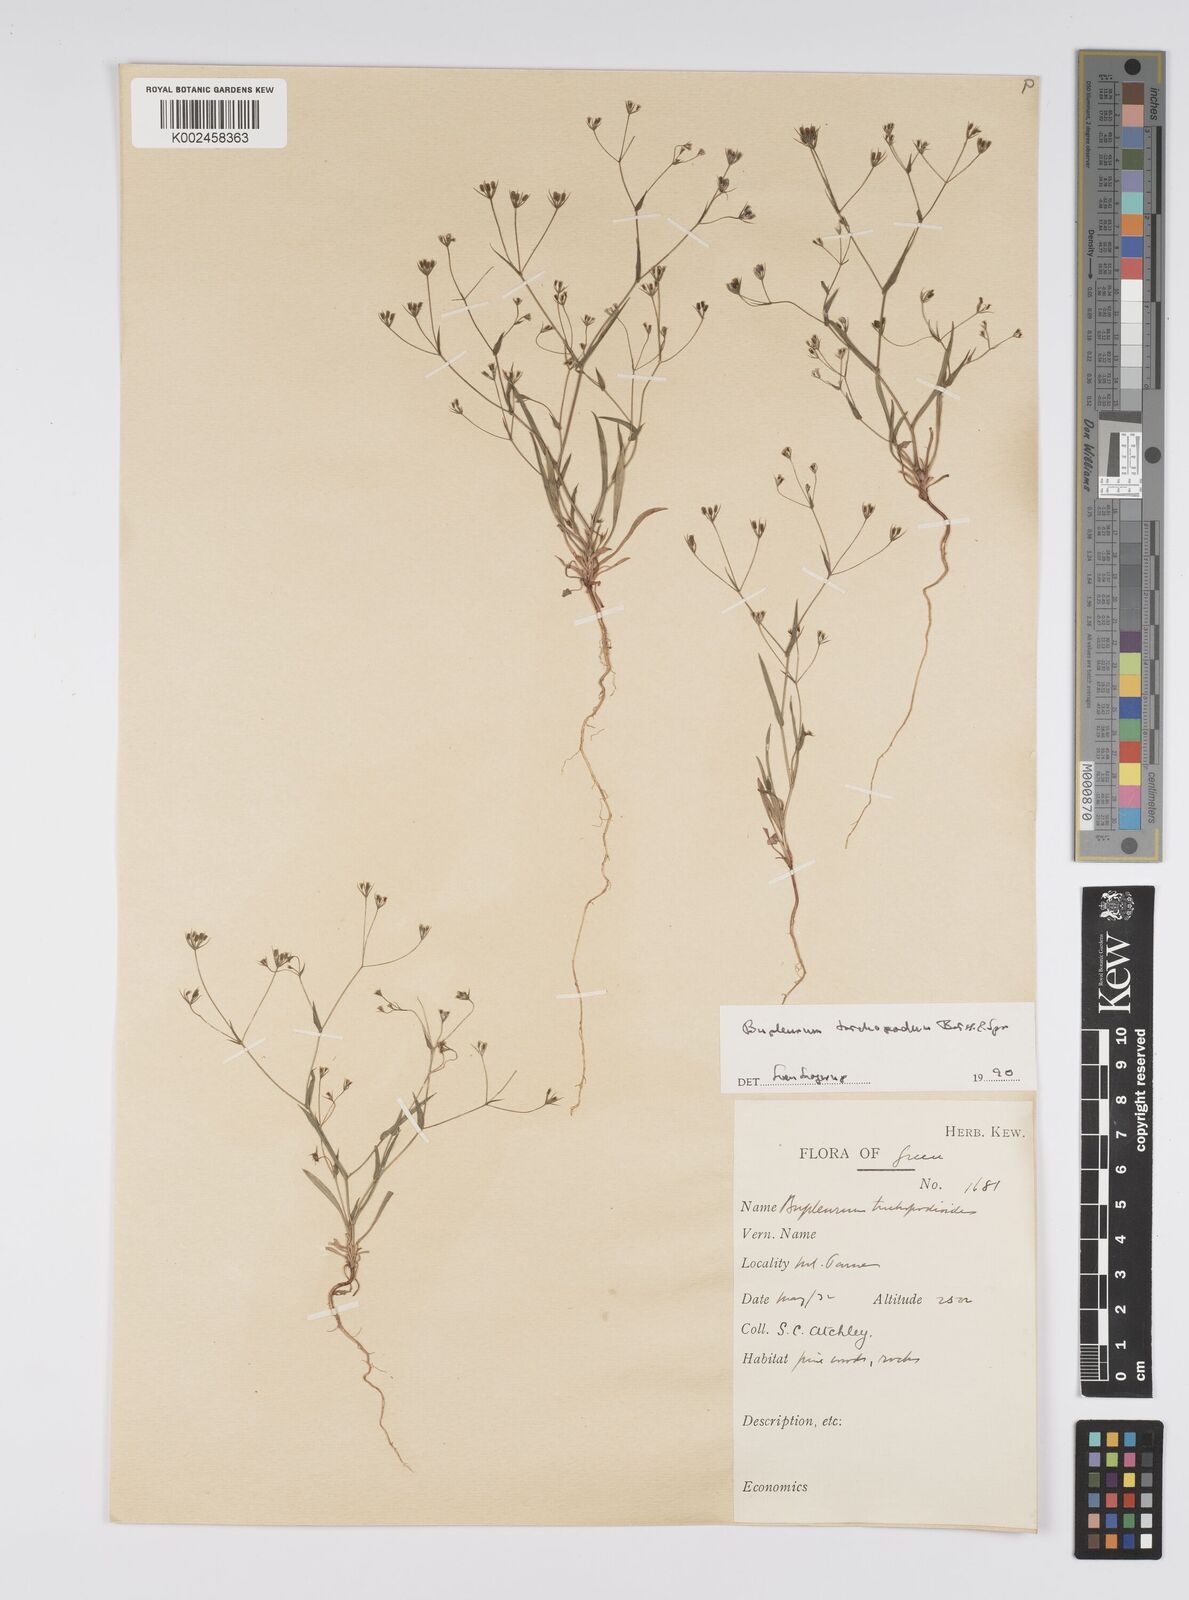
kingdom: Plantae
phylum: Tracheophyta
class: Magnoliopsida
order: Apiales
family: Apiaceae
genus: Bupleurum
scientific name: Bupleurum trichopodum
